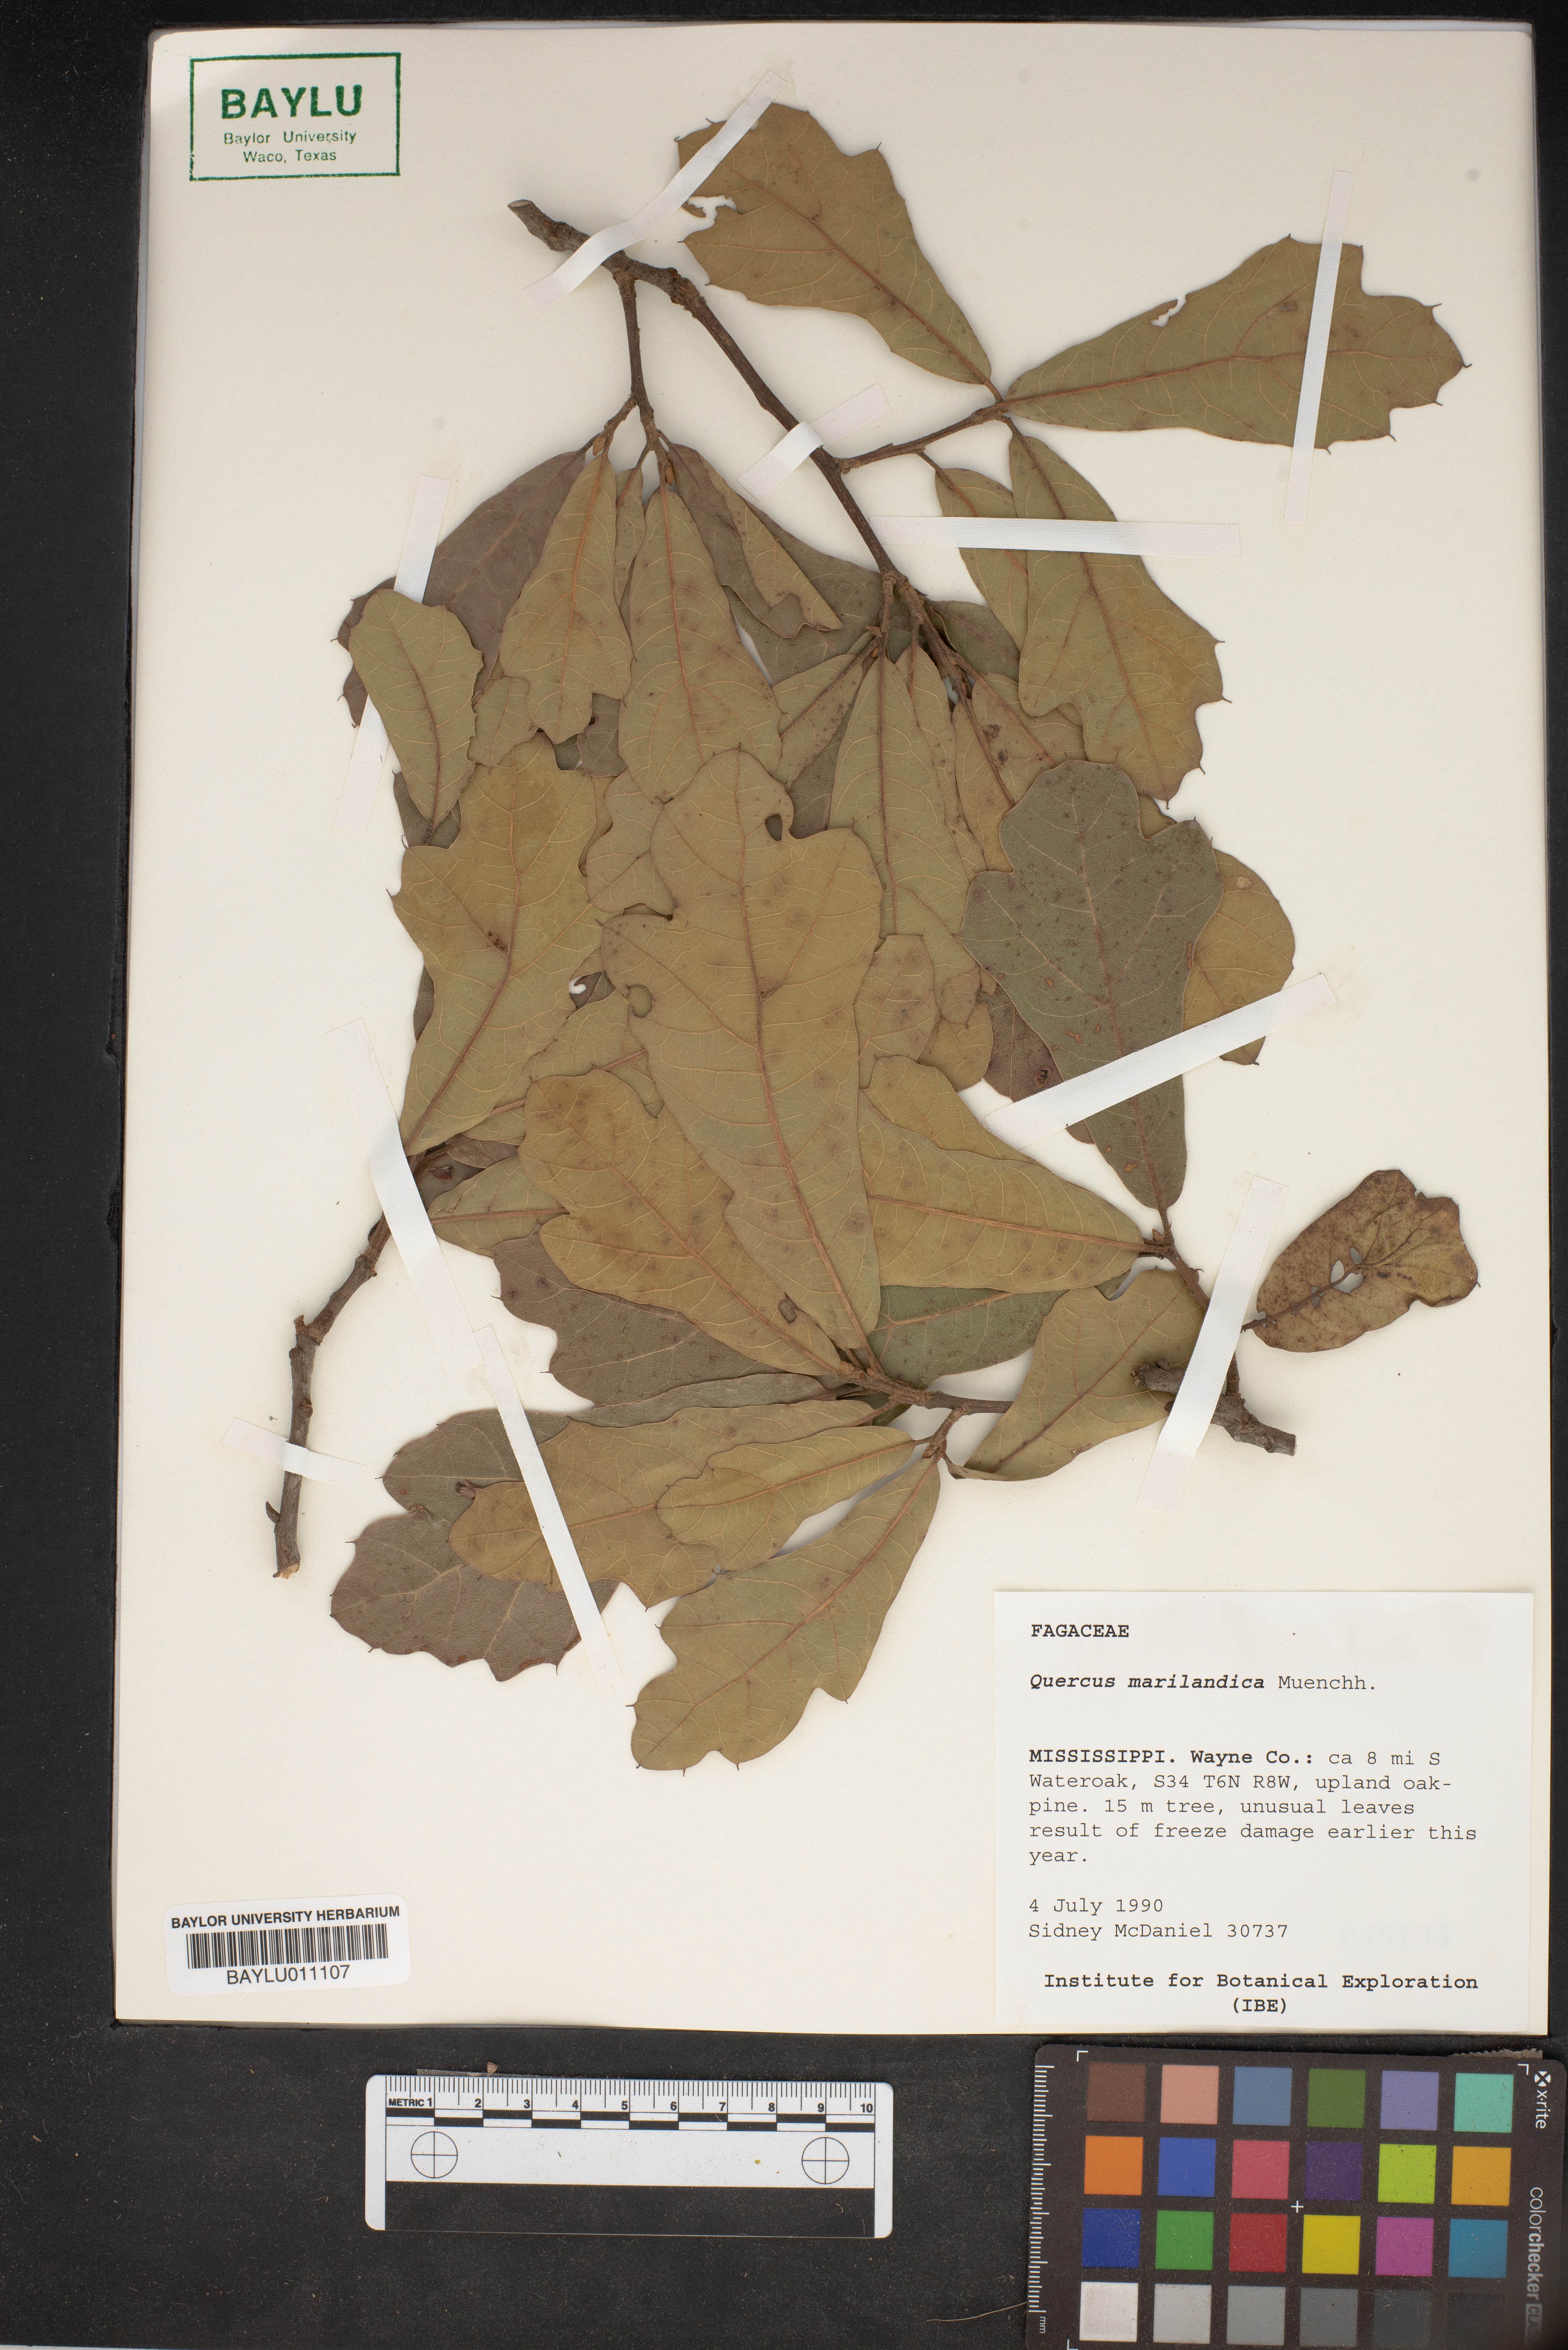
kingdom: Plantae
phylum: Tracheophyta
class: Magnoliopsida
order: Fagales
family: Fagaceae
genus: Quercus
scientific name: Quercus marilandica
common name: Blackjack oak
